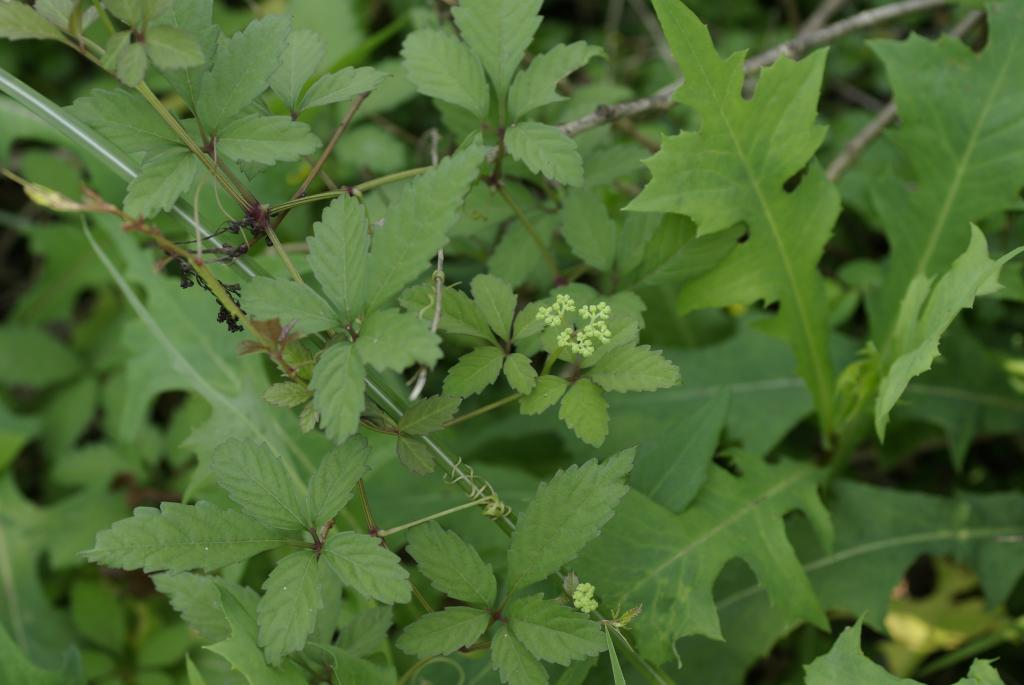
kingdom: Plantae
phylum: Tracheophyta
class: Magnoliopsida
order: Vitales
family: Vitaceae
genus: Causonis
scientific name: Causonis japonica
